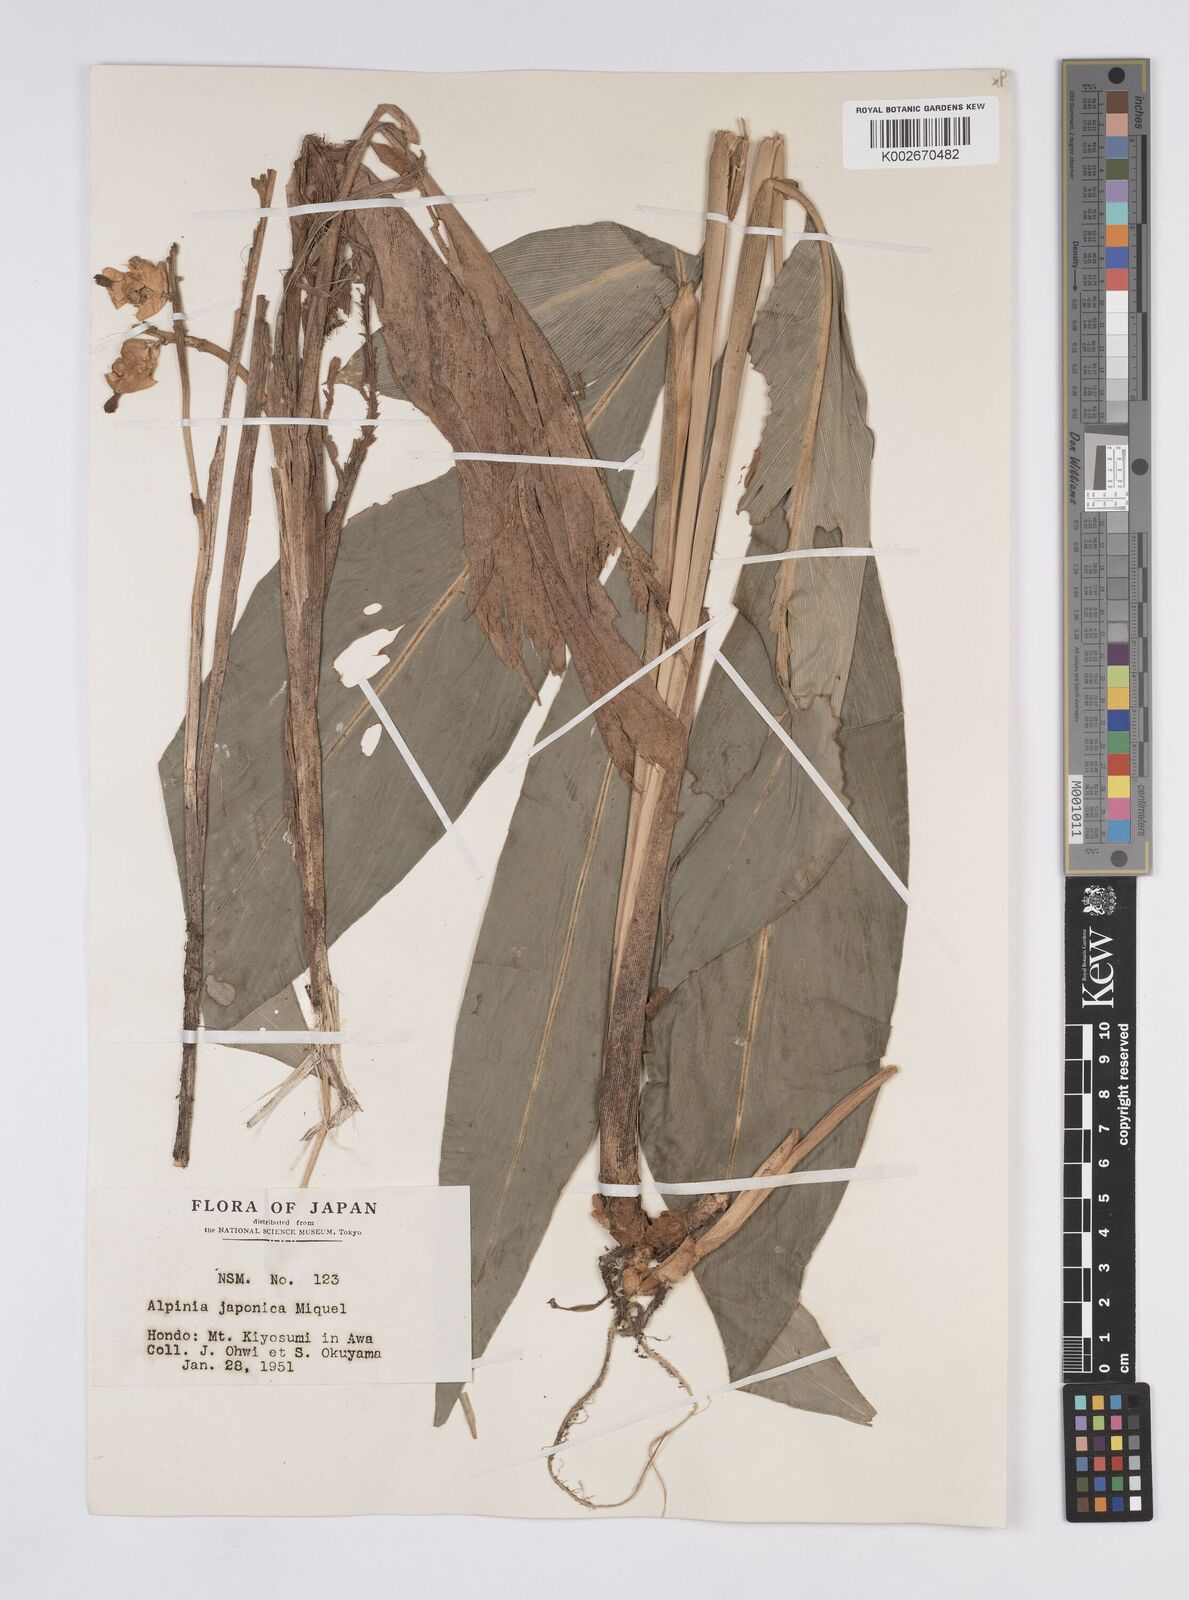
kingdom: Plantae
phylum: Tracheophyta
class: Liliopsida
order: Zingiberales
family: Zingiberaceae
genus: Alpinia
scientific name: Alpinia japonica
